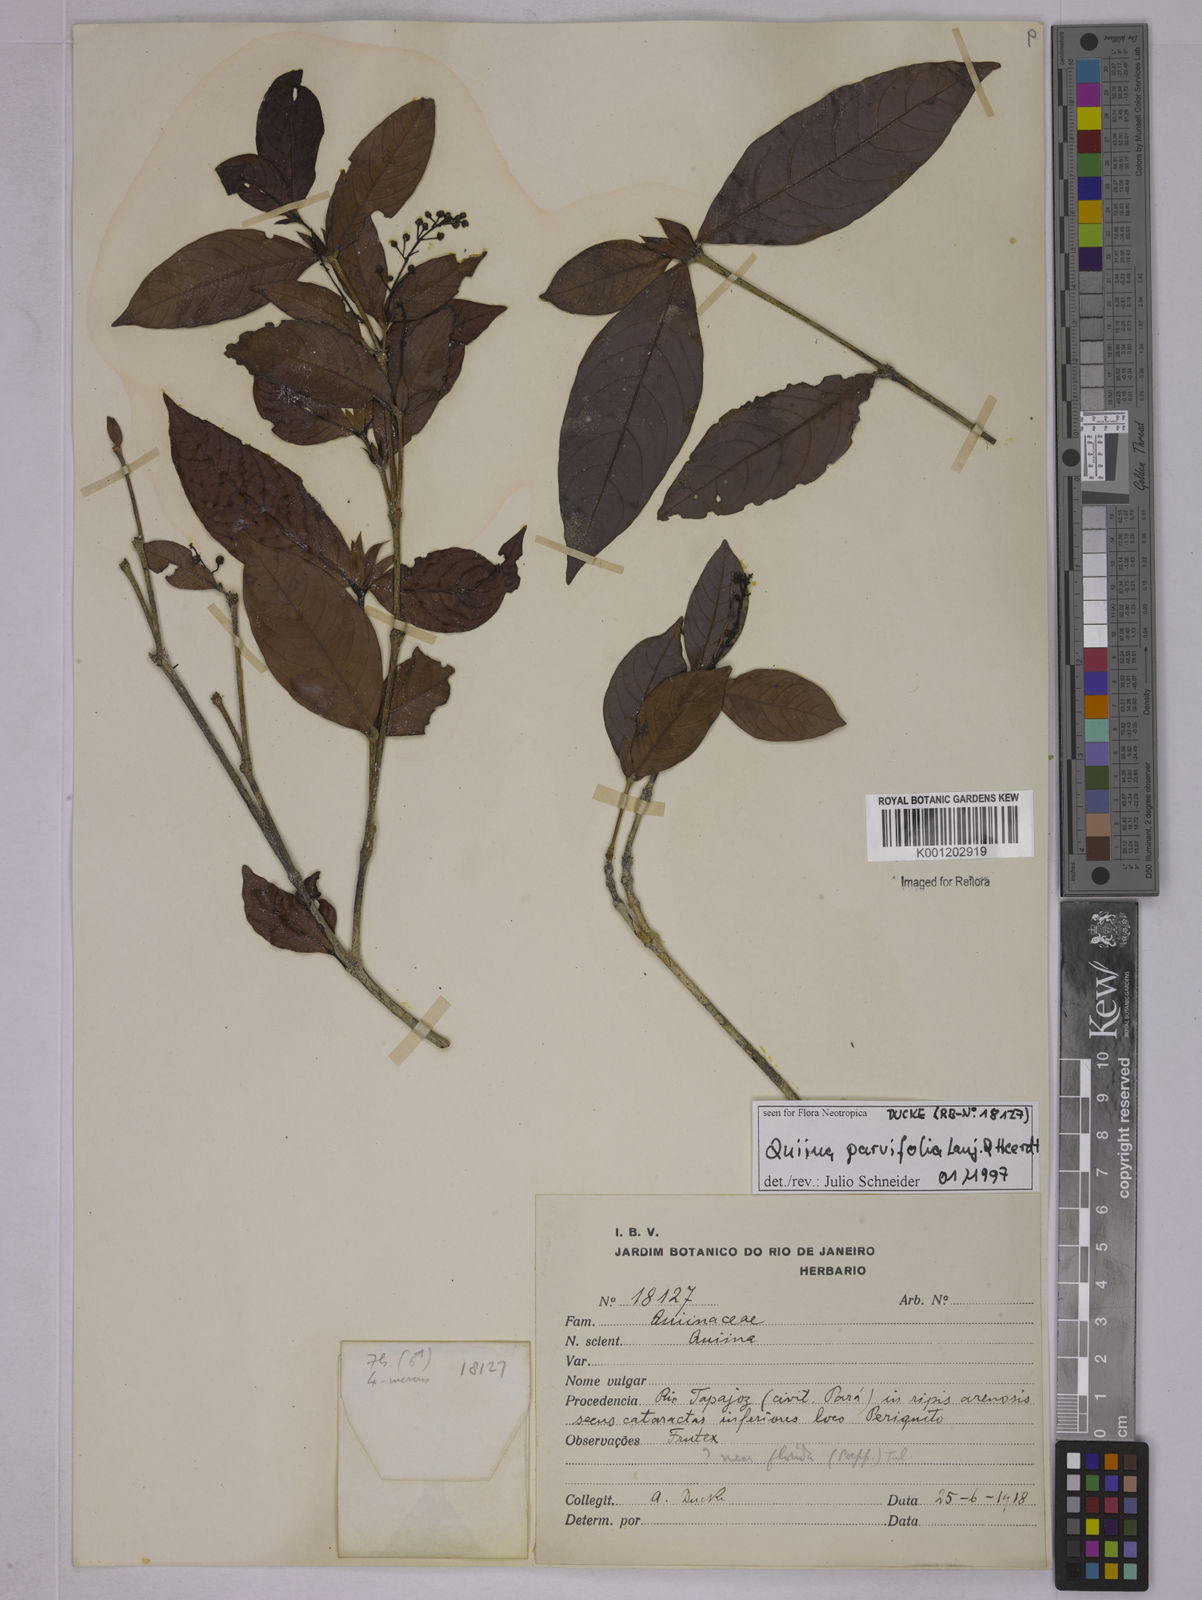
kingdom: Plantae
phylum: Tracheophyta
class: Magnoliopsida
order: Malpighiales
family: Quiinaceae
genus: Quiina
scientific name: Quiina tinifolia
